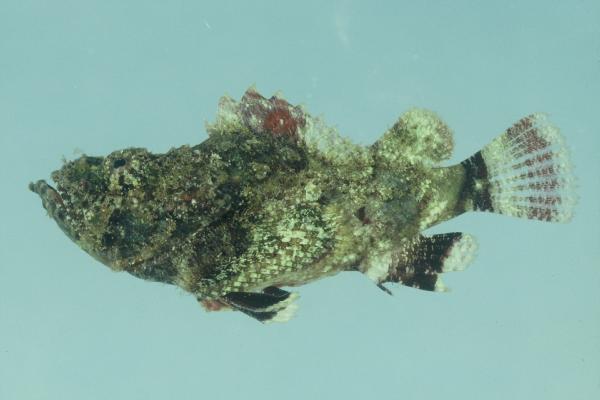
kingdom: Animalia
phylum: Chordata
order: Scorpaeniformes
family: Scorpaenidae
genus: Scorpaenopsis
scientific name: Scorpaenopsis gibbosa
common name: Humpback scorpionfish
